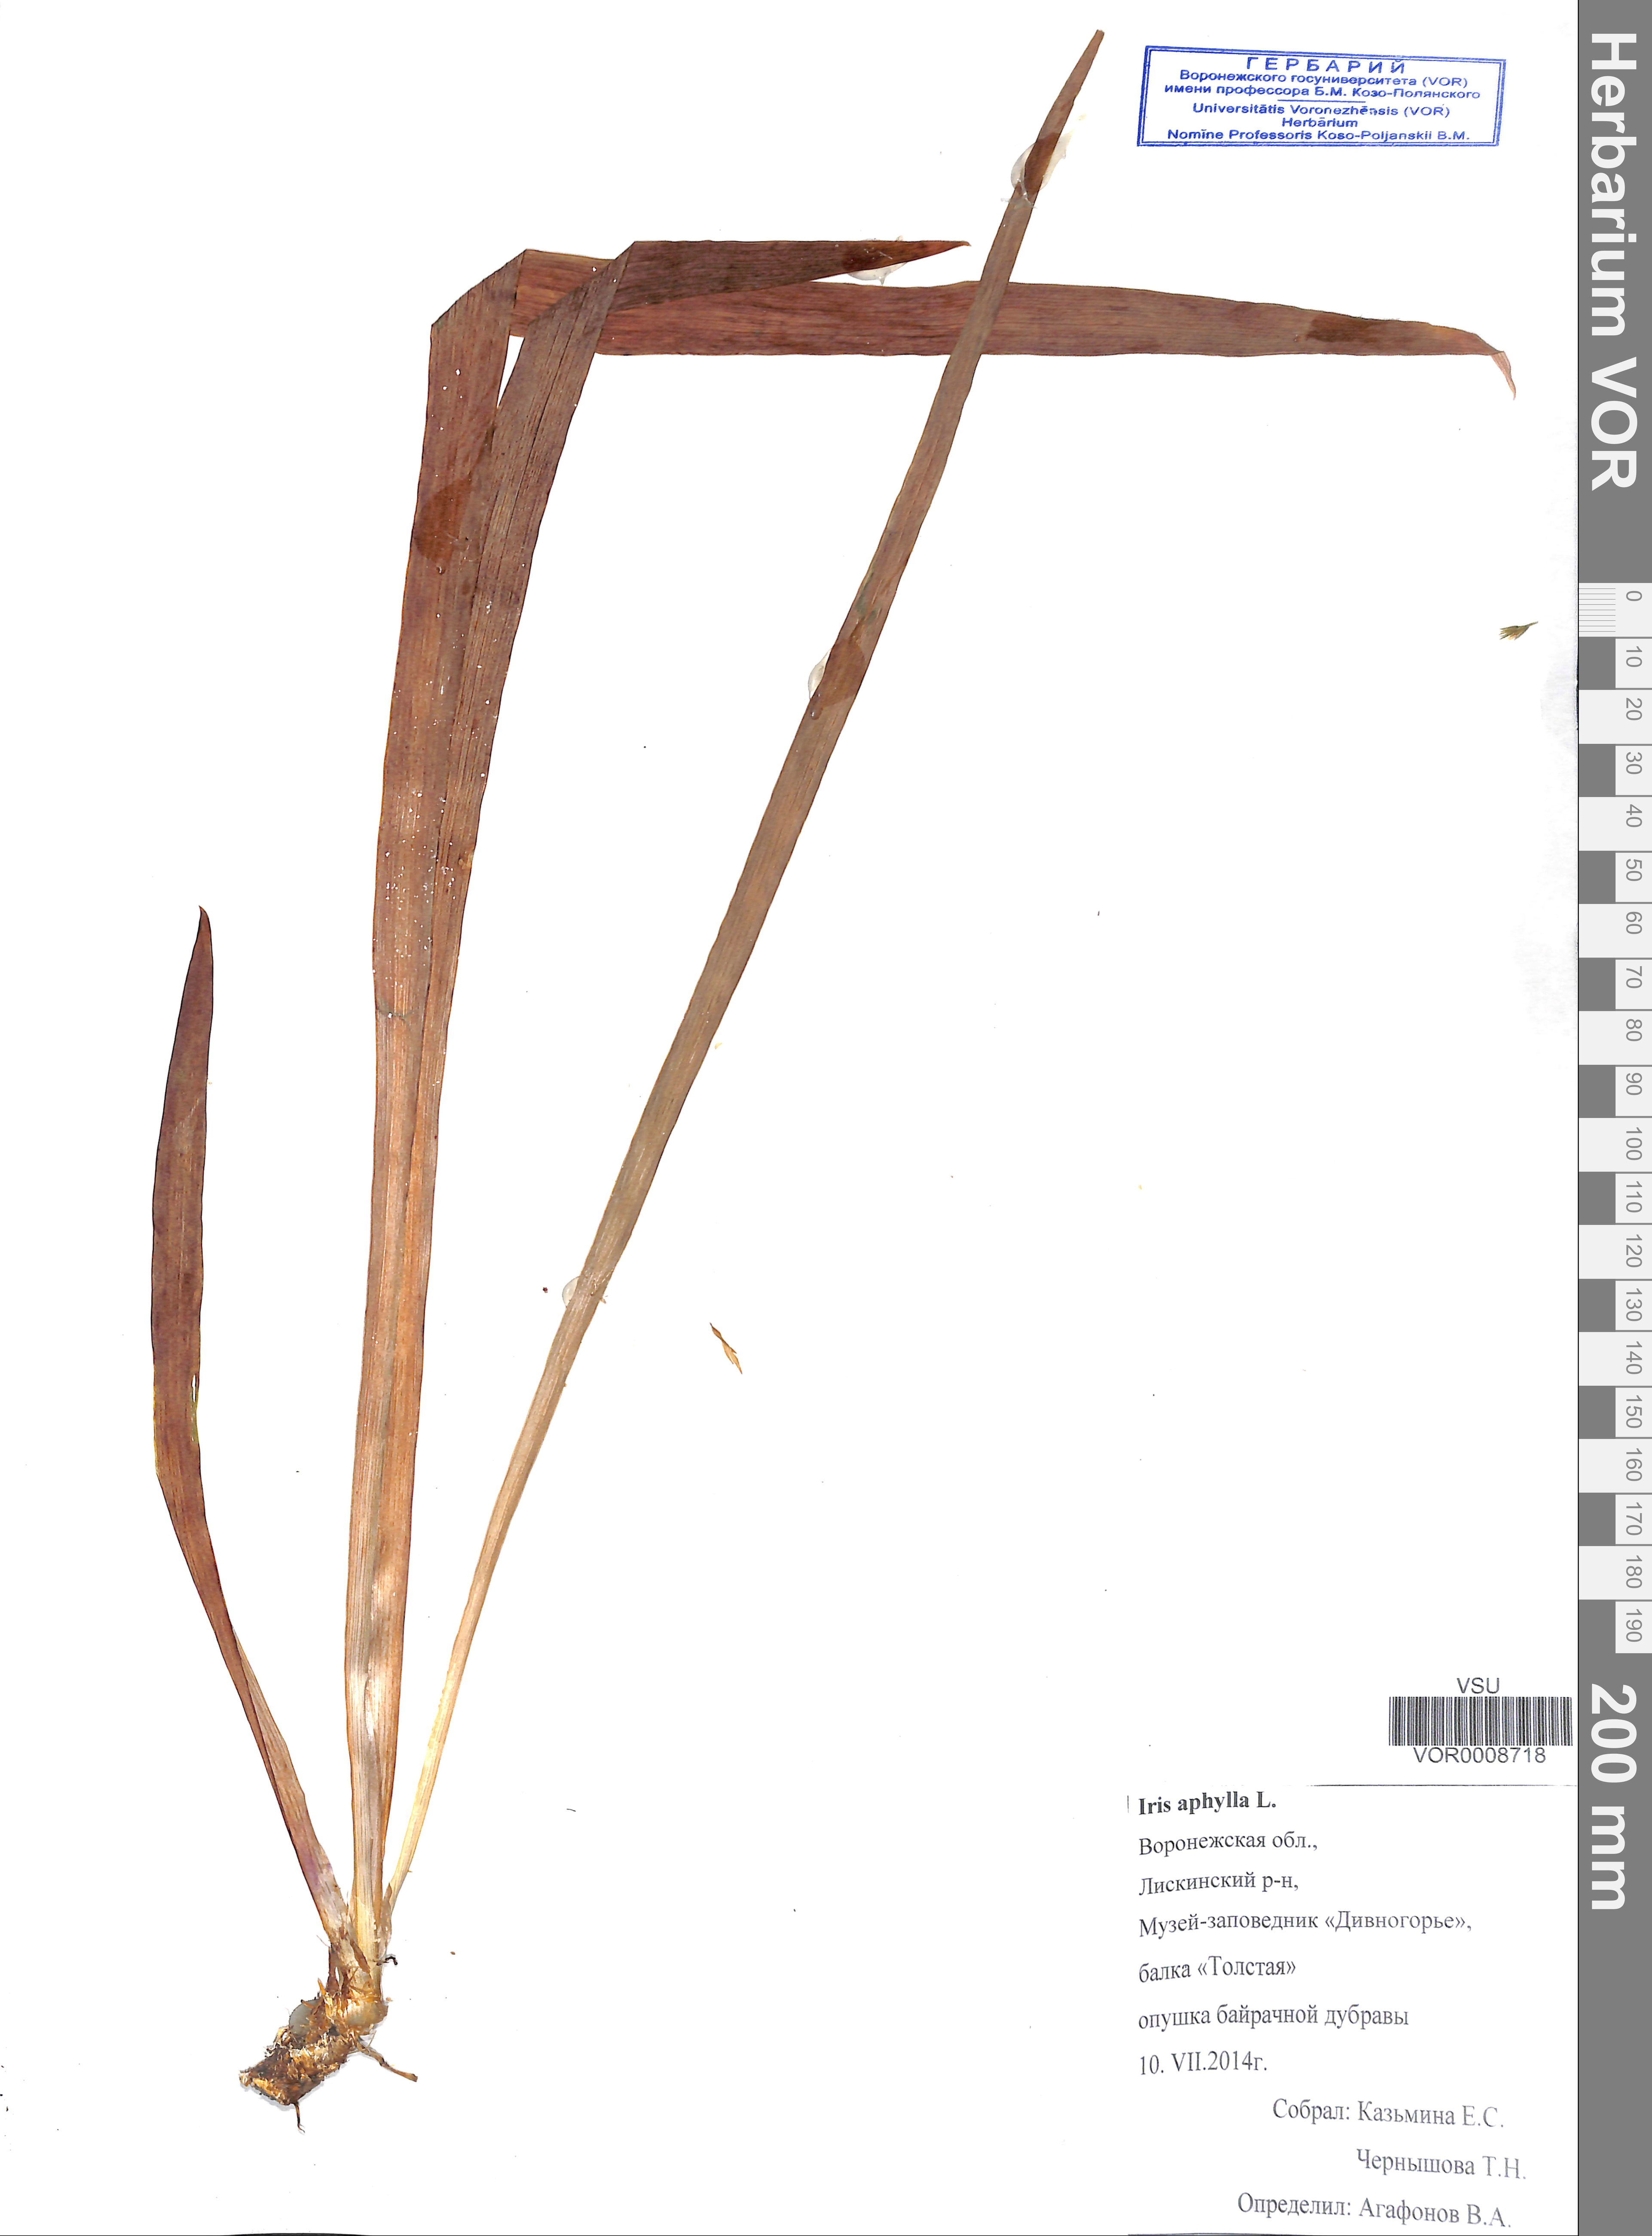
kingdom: Plantae
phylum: Tracheophyta
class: Liliopsida
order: Asparagales
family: Iridaceae
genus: Iris
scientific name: Iris aphylla
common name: Stool iris
